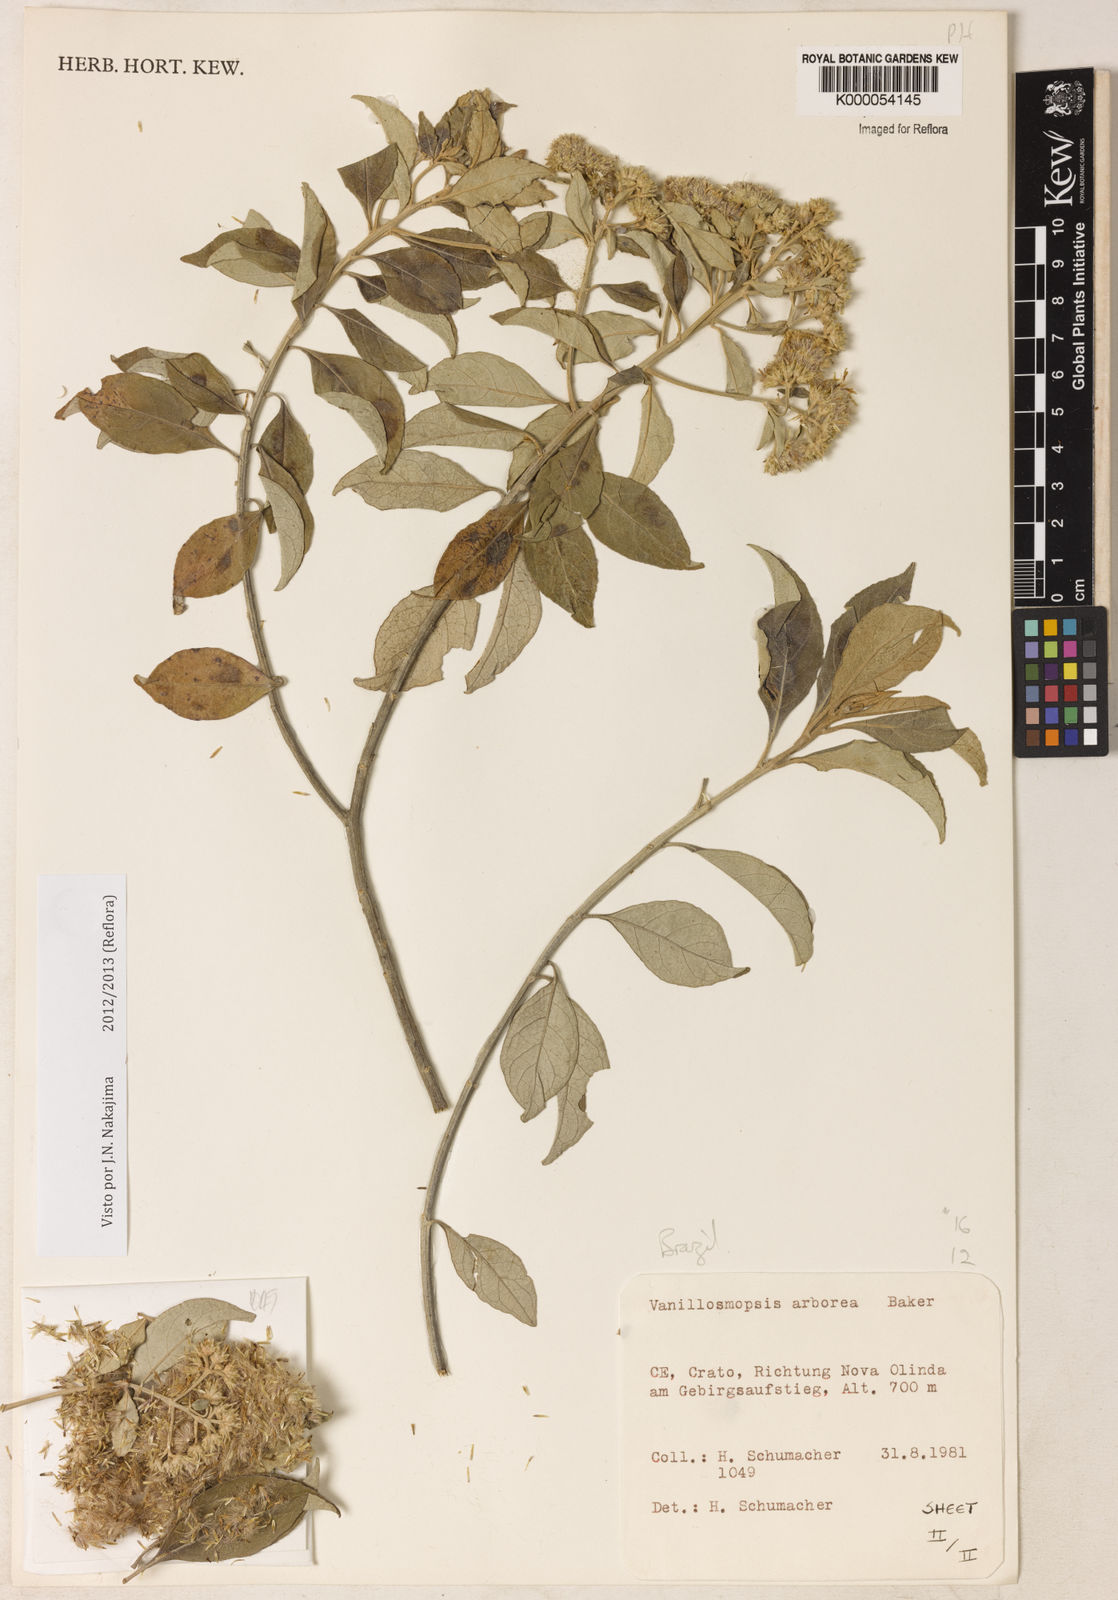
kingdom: Plantae
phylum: Tracheophyta
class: Magnoliopsida
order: Asterales
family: Asteraceae
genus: Eremanthus
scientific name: Eremanthus arboreus
